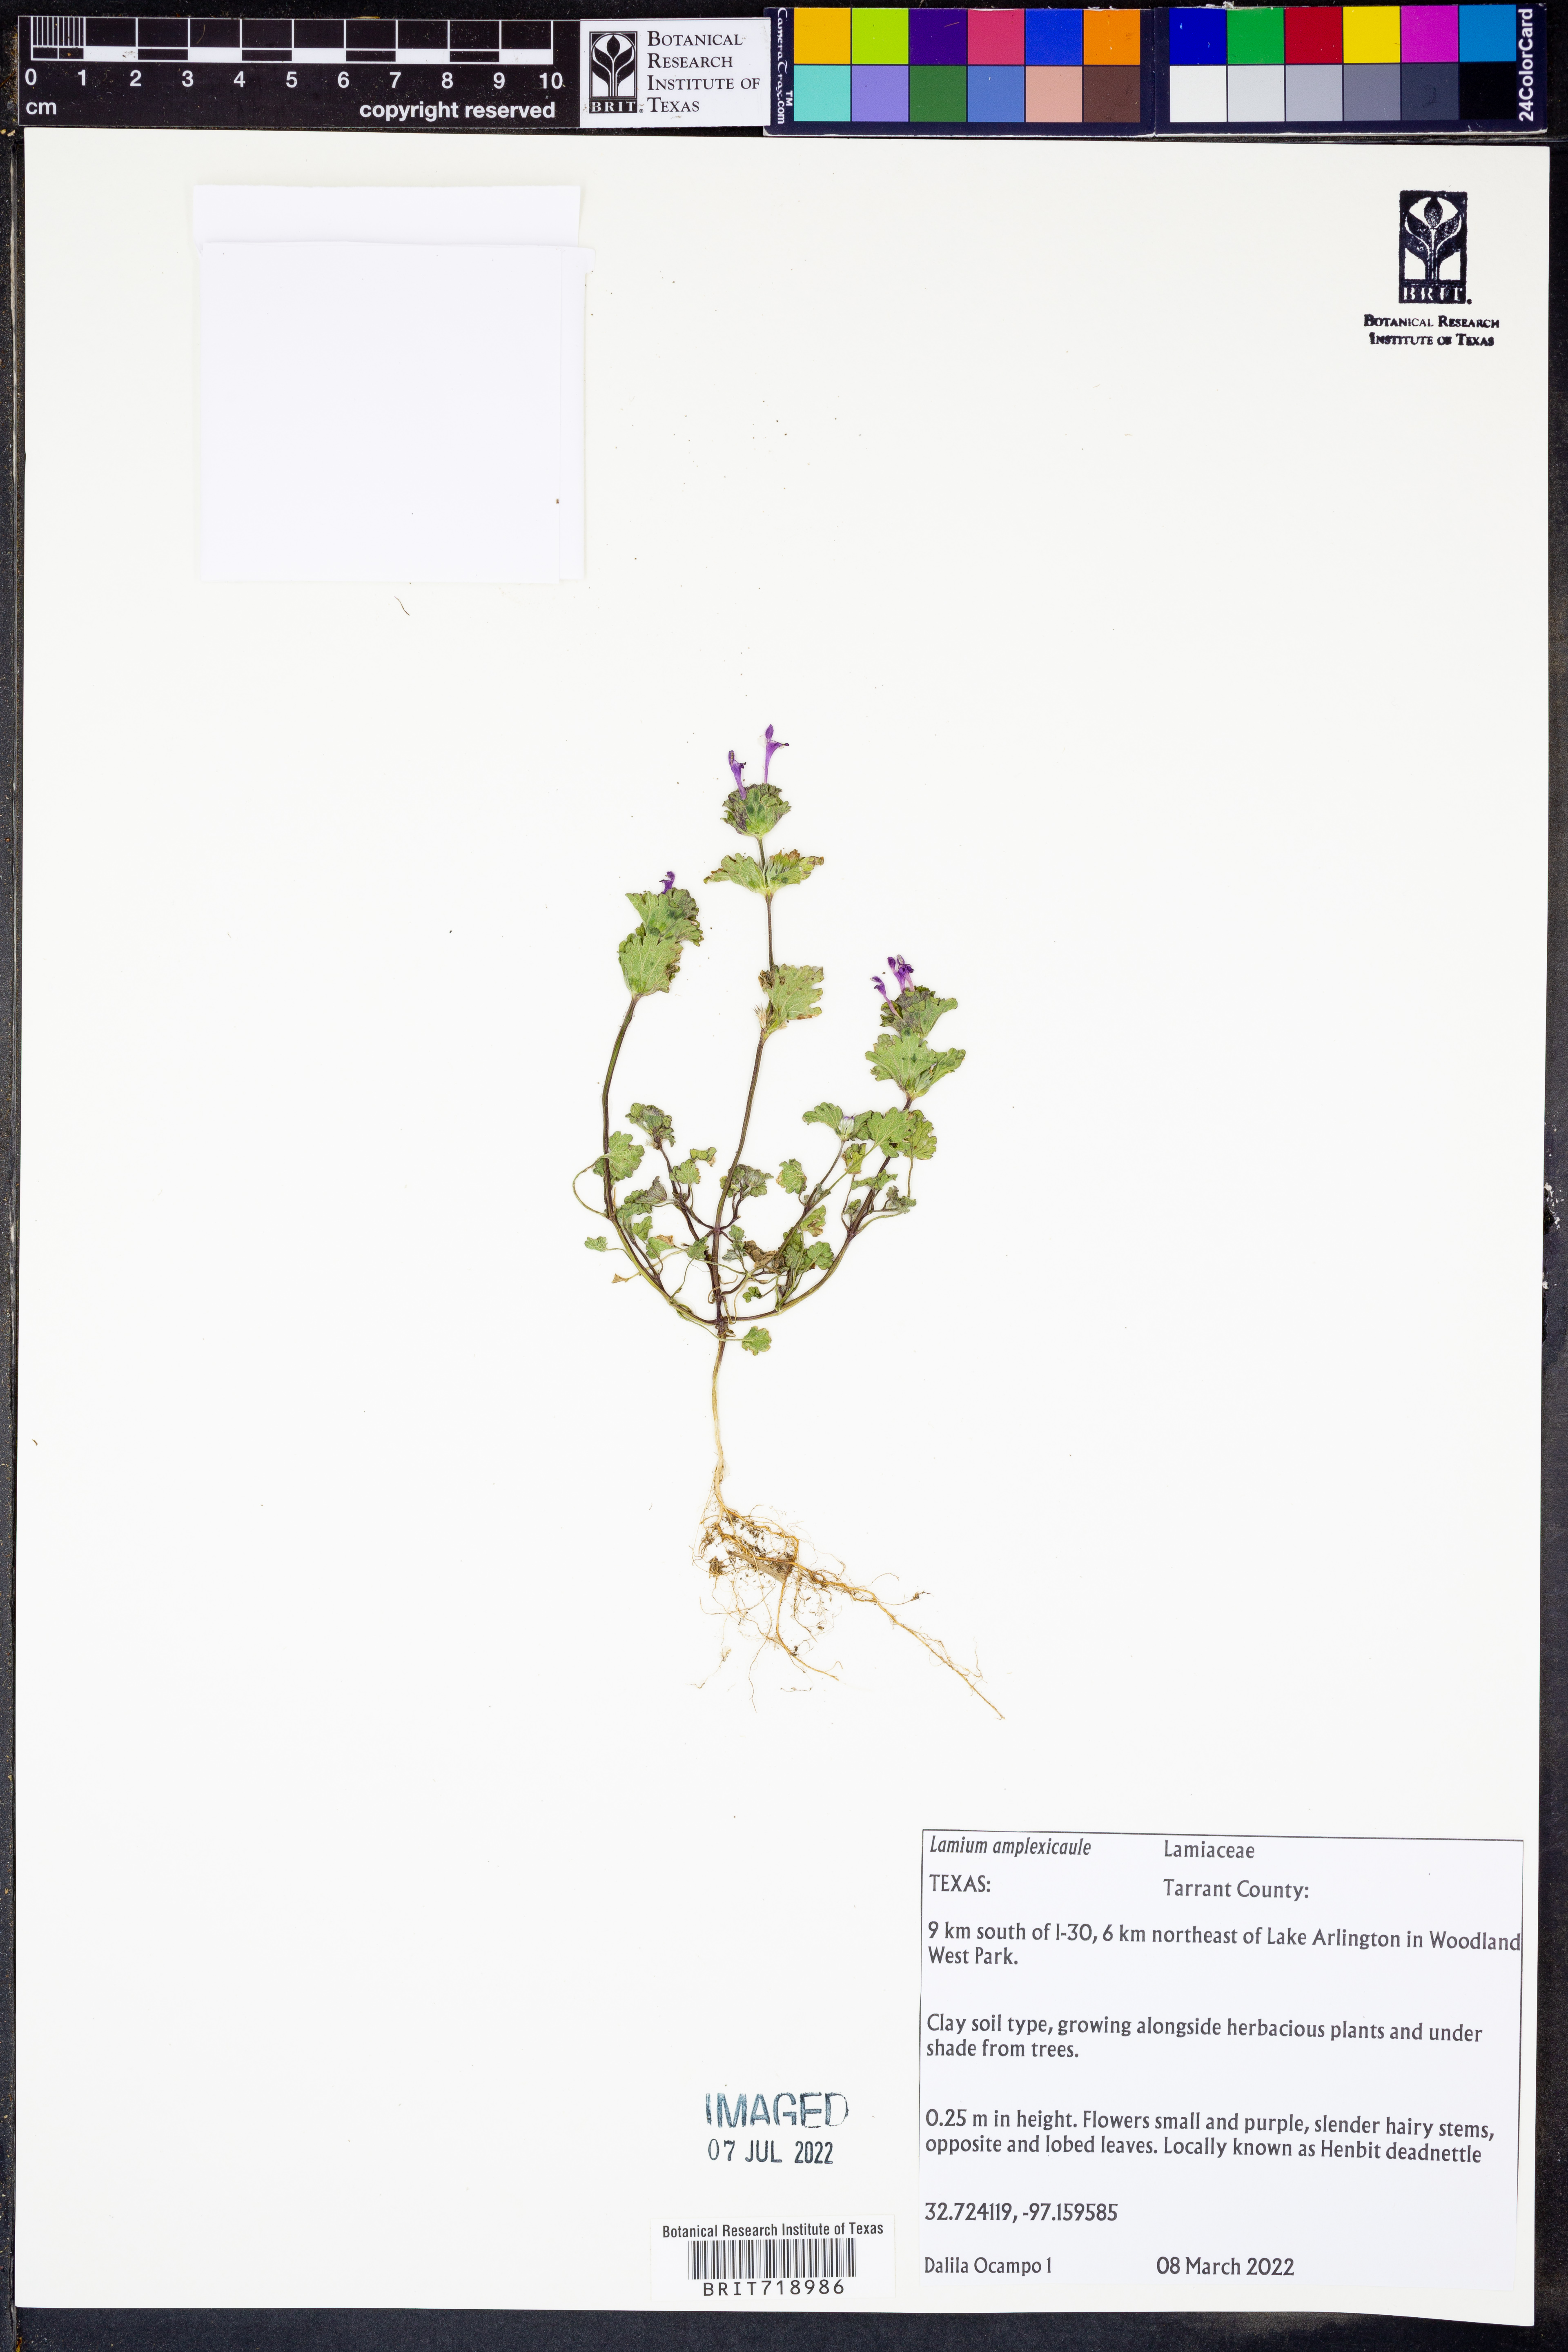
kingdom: Plantae
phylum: Tracheophyta
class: Magnoliopsida
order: Lamiales
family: Lamiaceae
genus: Lamium
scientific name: Lamium amplexicaule
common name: Henbit dead-nettle
